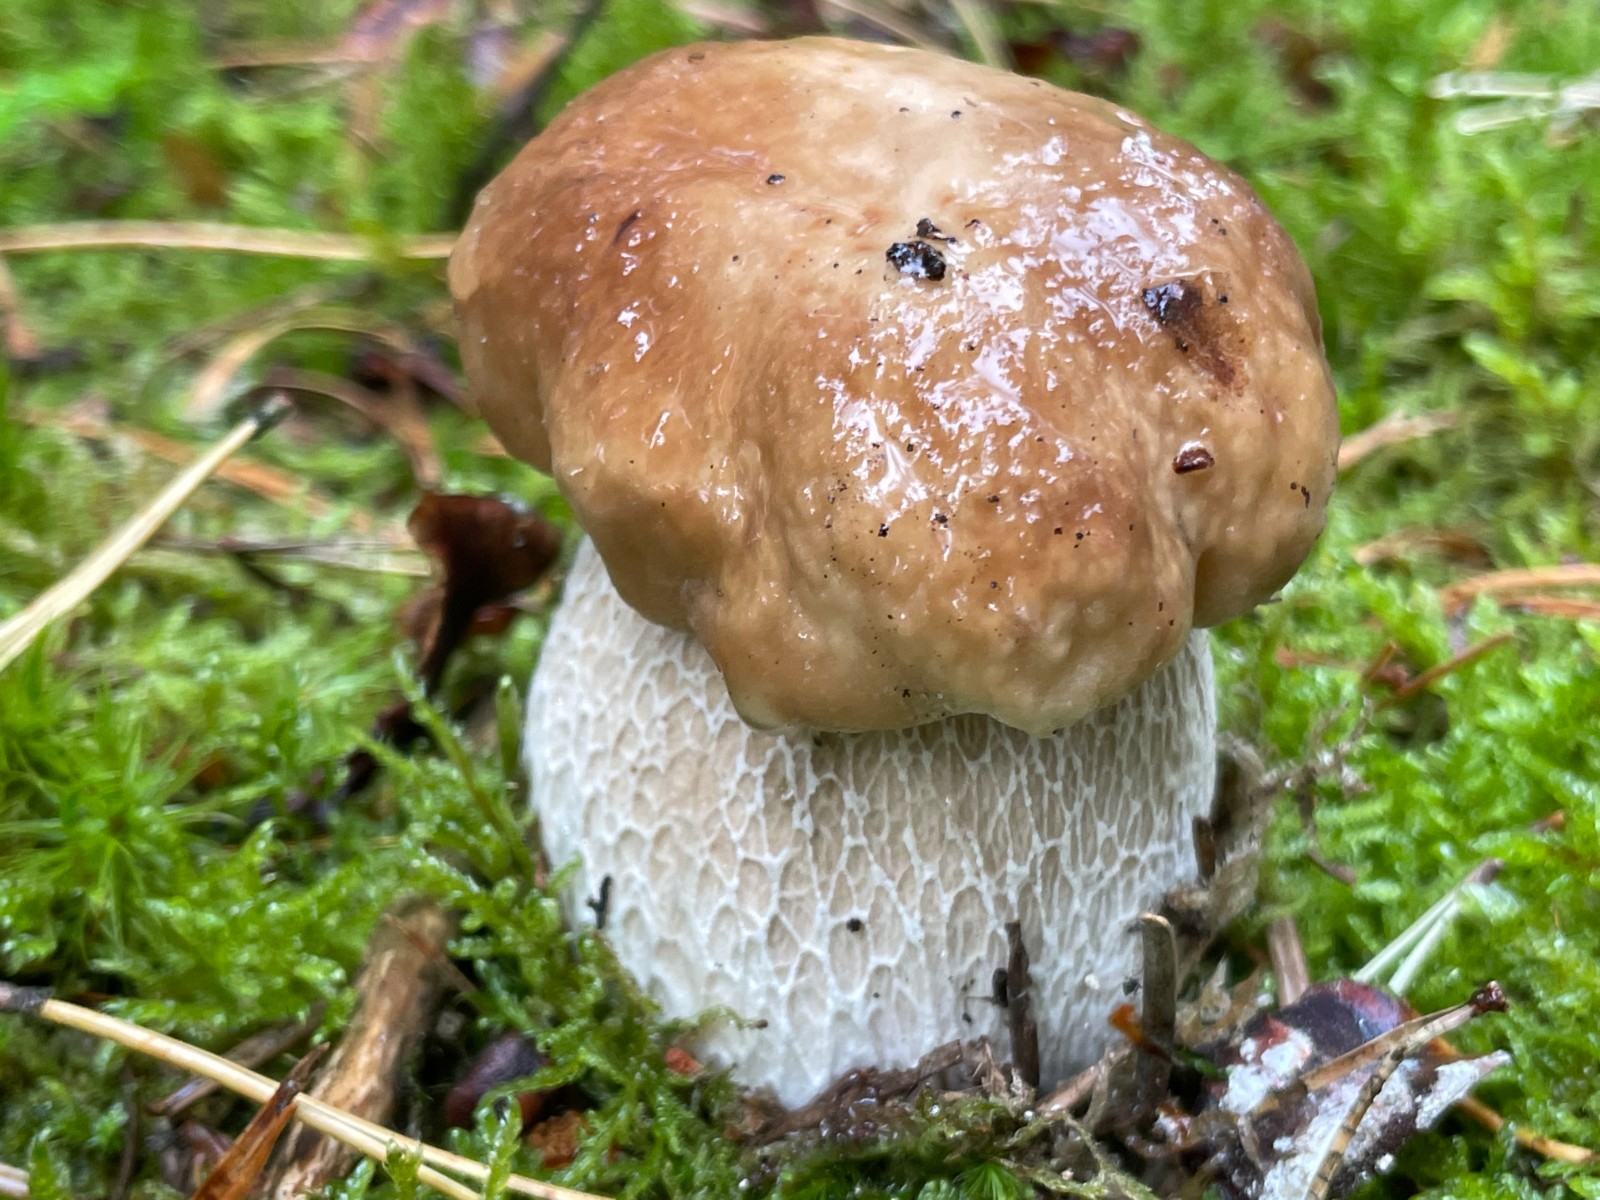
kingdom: Fungi
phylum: Basidiomycota
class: Agaricomycetes
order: Boletales
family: Boletaceae
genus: Boletus
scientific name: Boletus edulis
